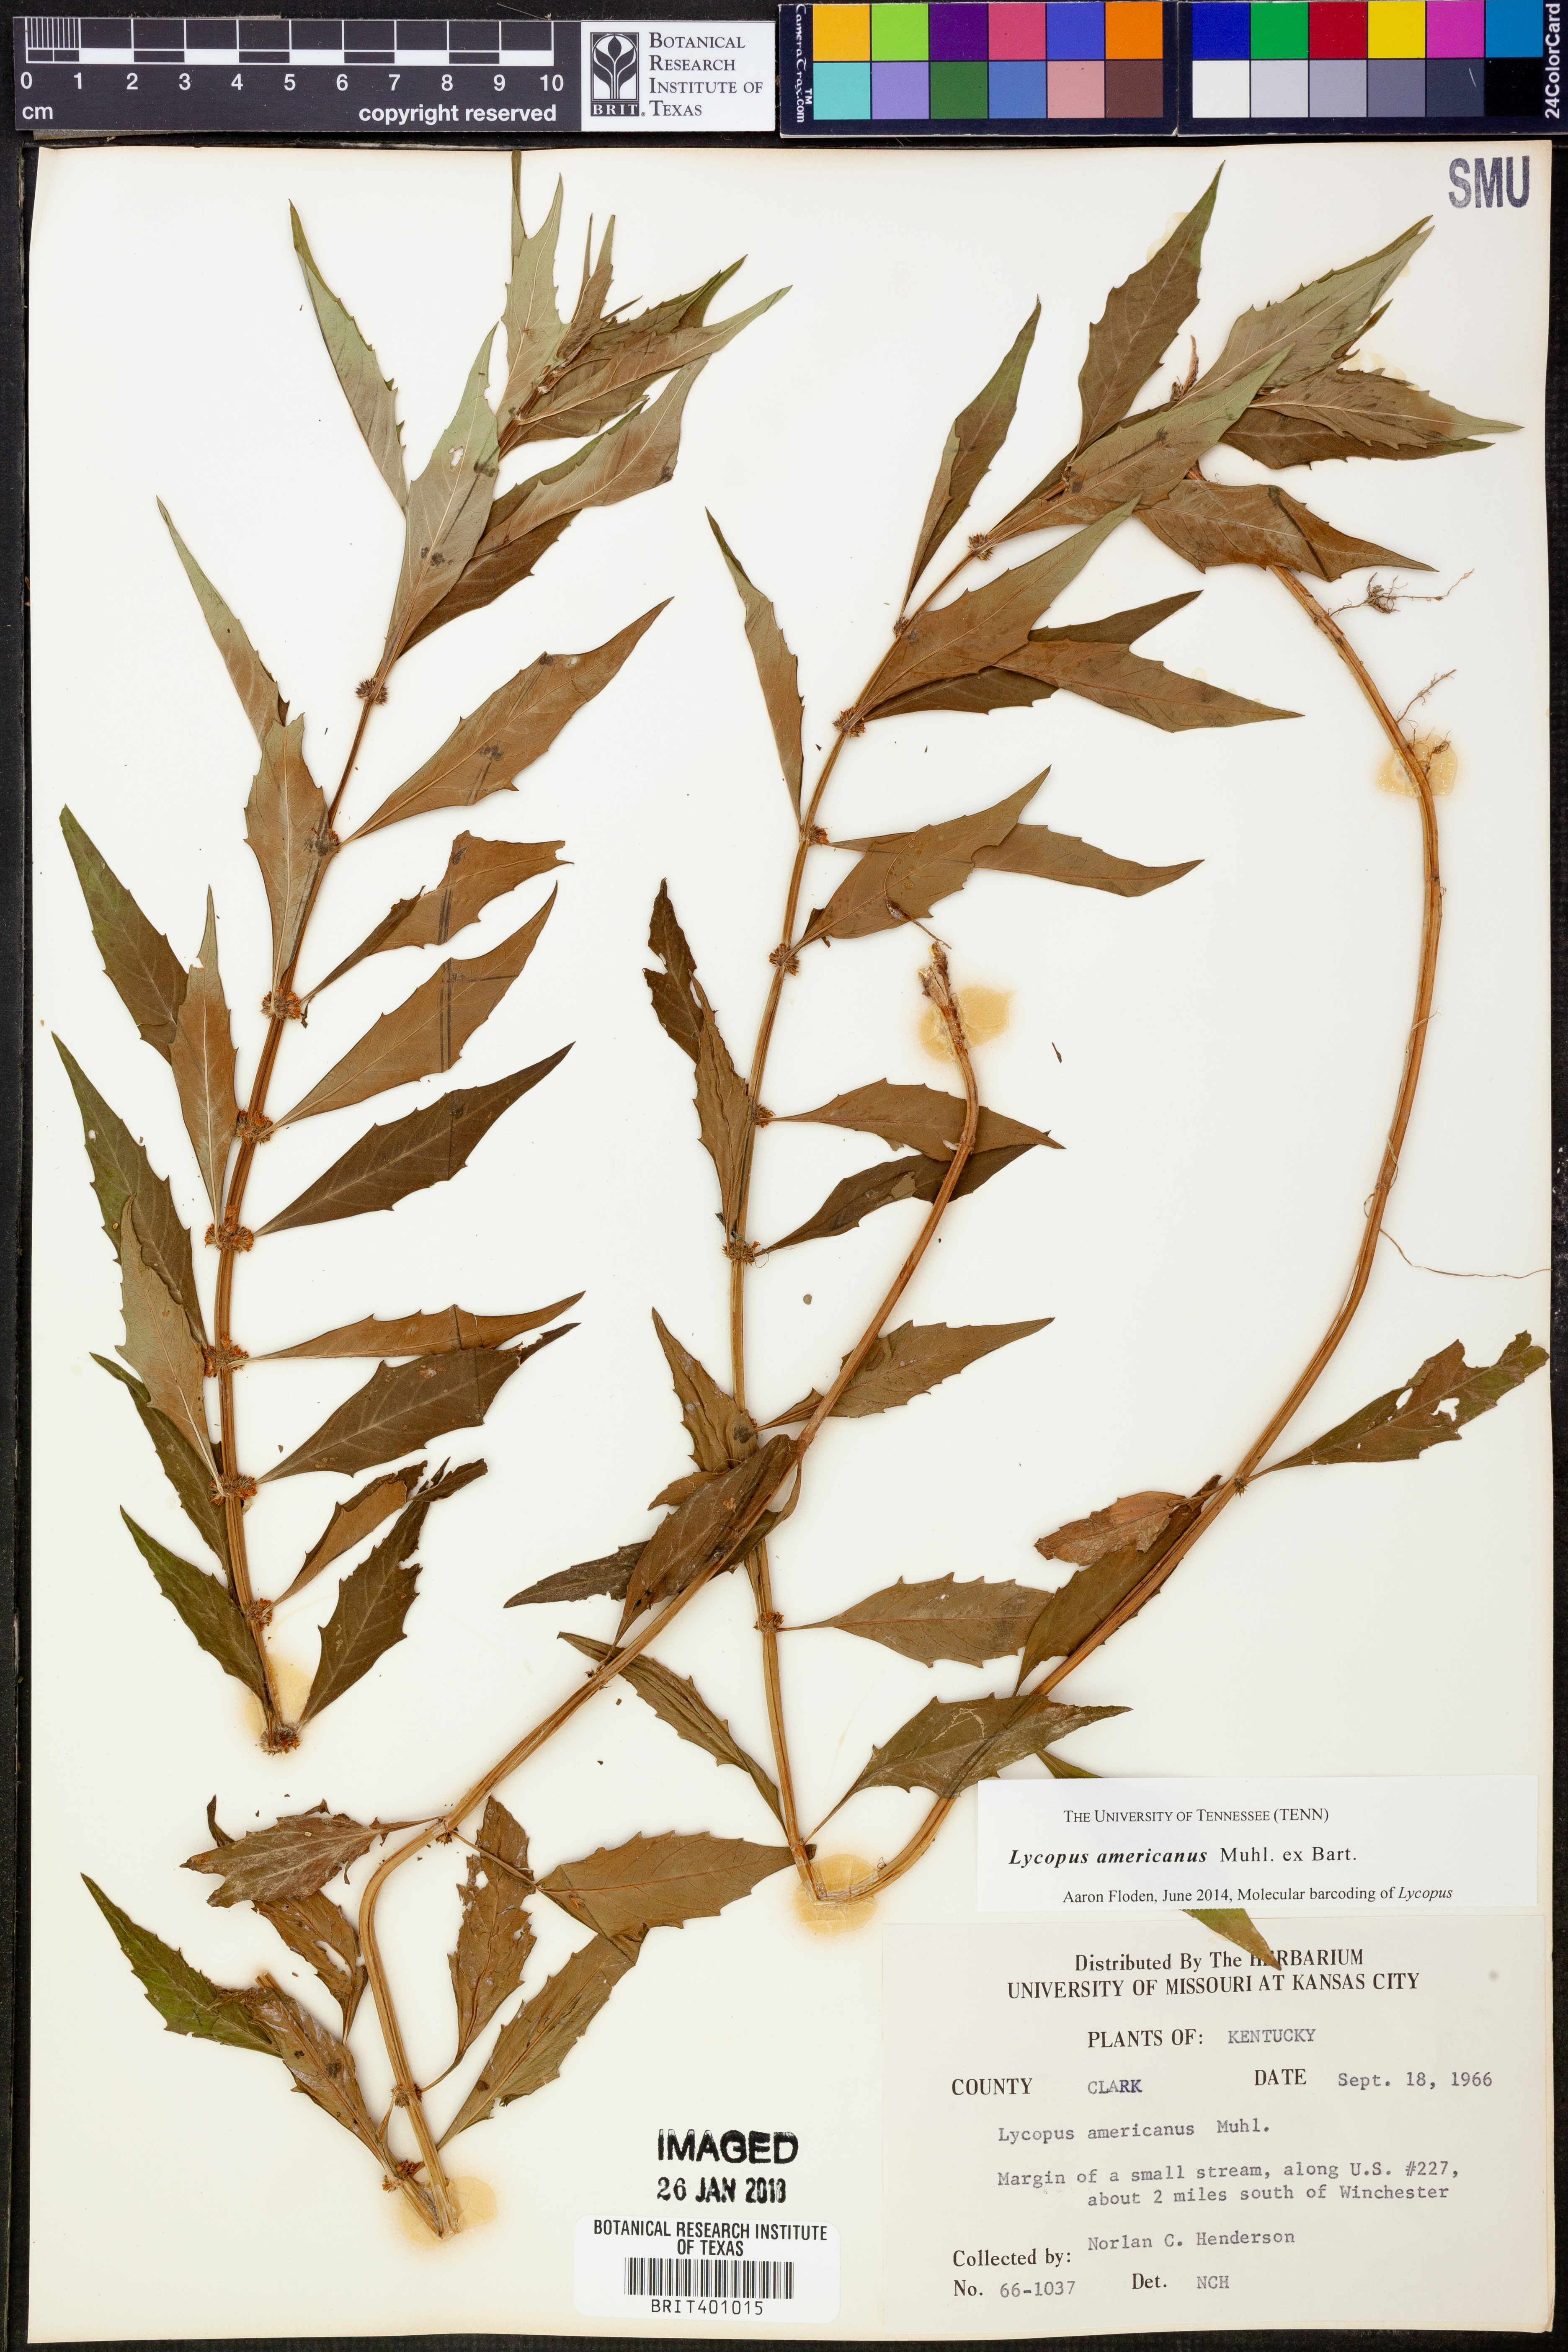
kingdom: Plantae
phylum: Tracheophyta
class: Magnoliopsida
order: Lamiales
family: Lamiaceae
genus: Lycopus
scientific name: Lycopus americanus
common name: American bugleweed
